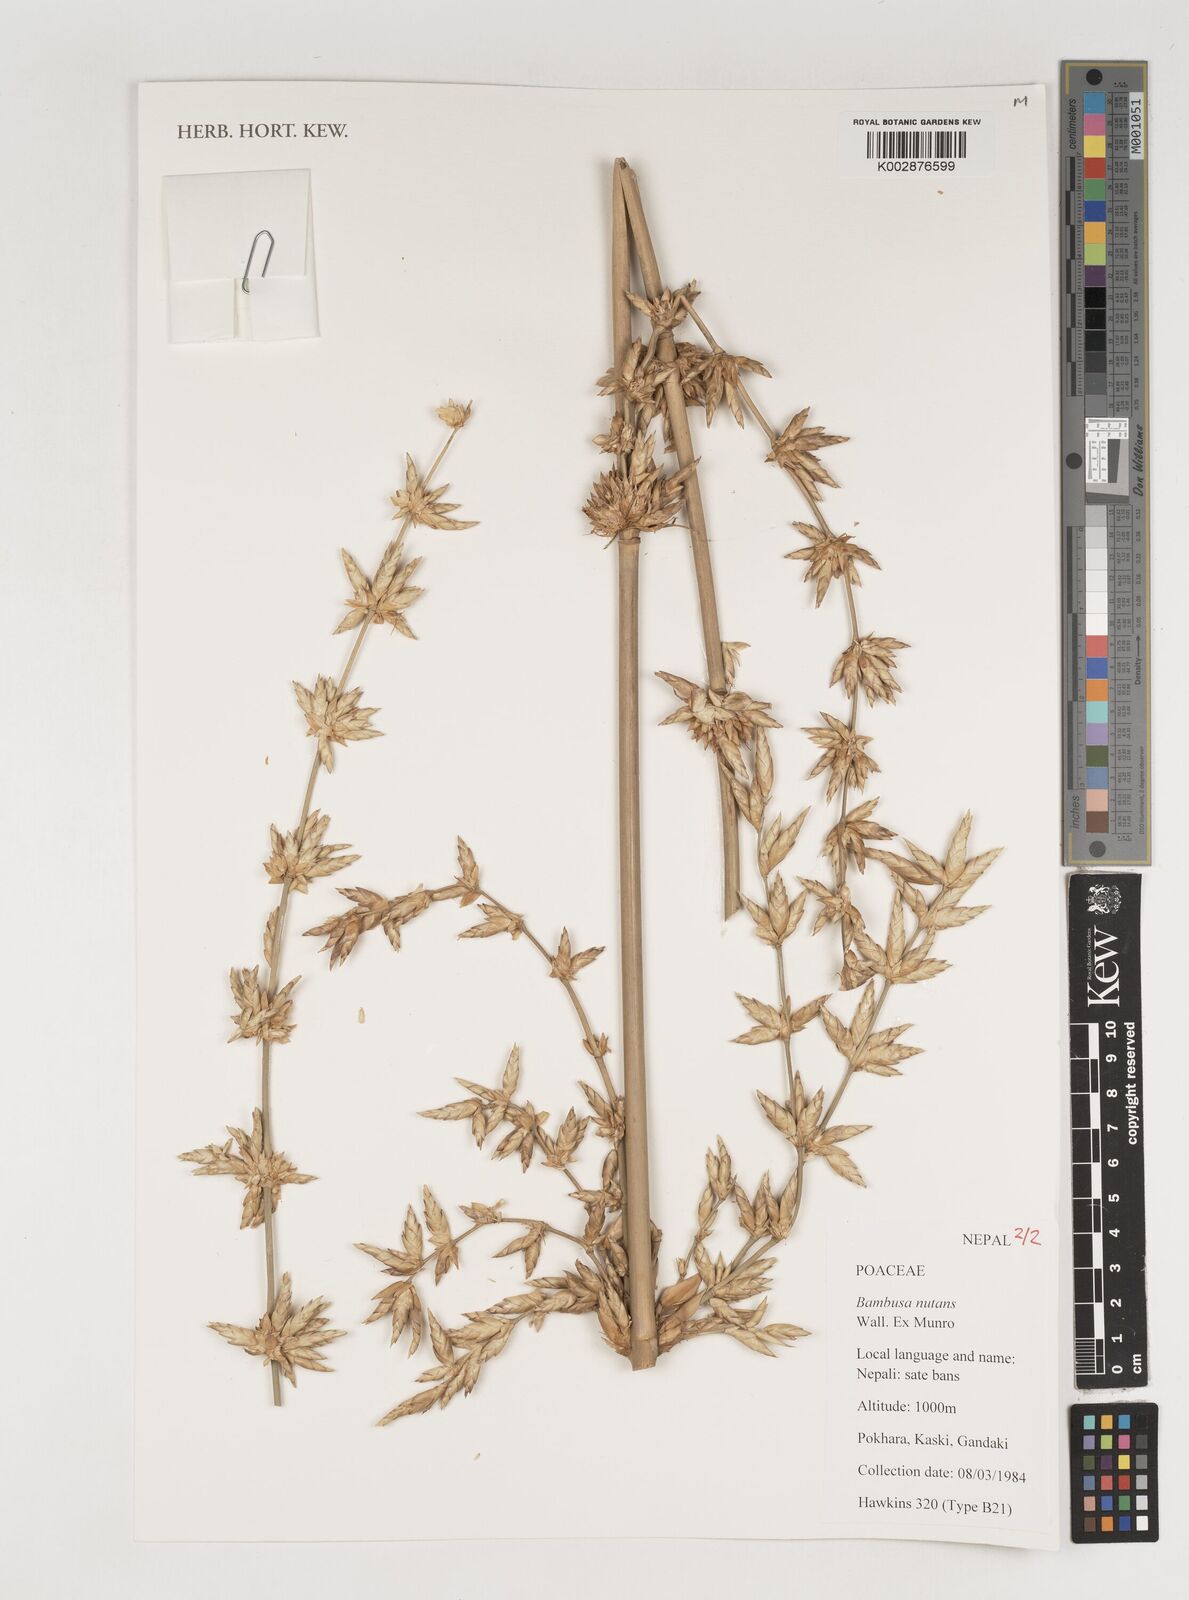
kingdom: Plantae
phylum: Tracheophyta
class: Liliopsida
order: Poales
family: Poaceae
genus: Bambusa
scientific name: Bambusa nutans
